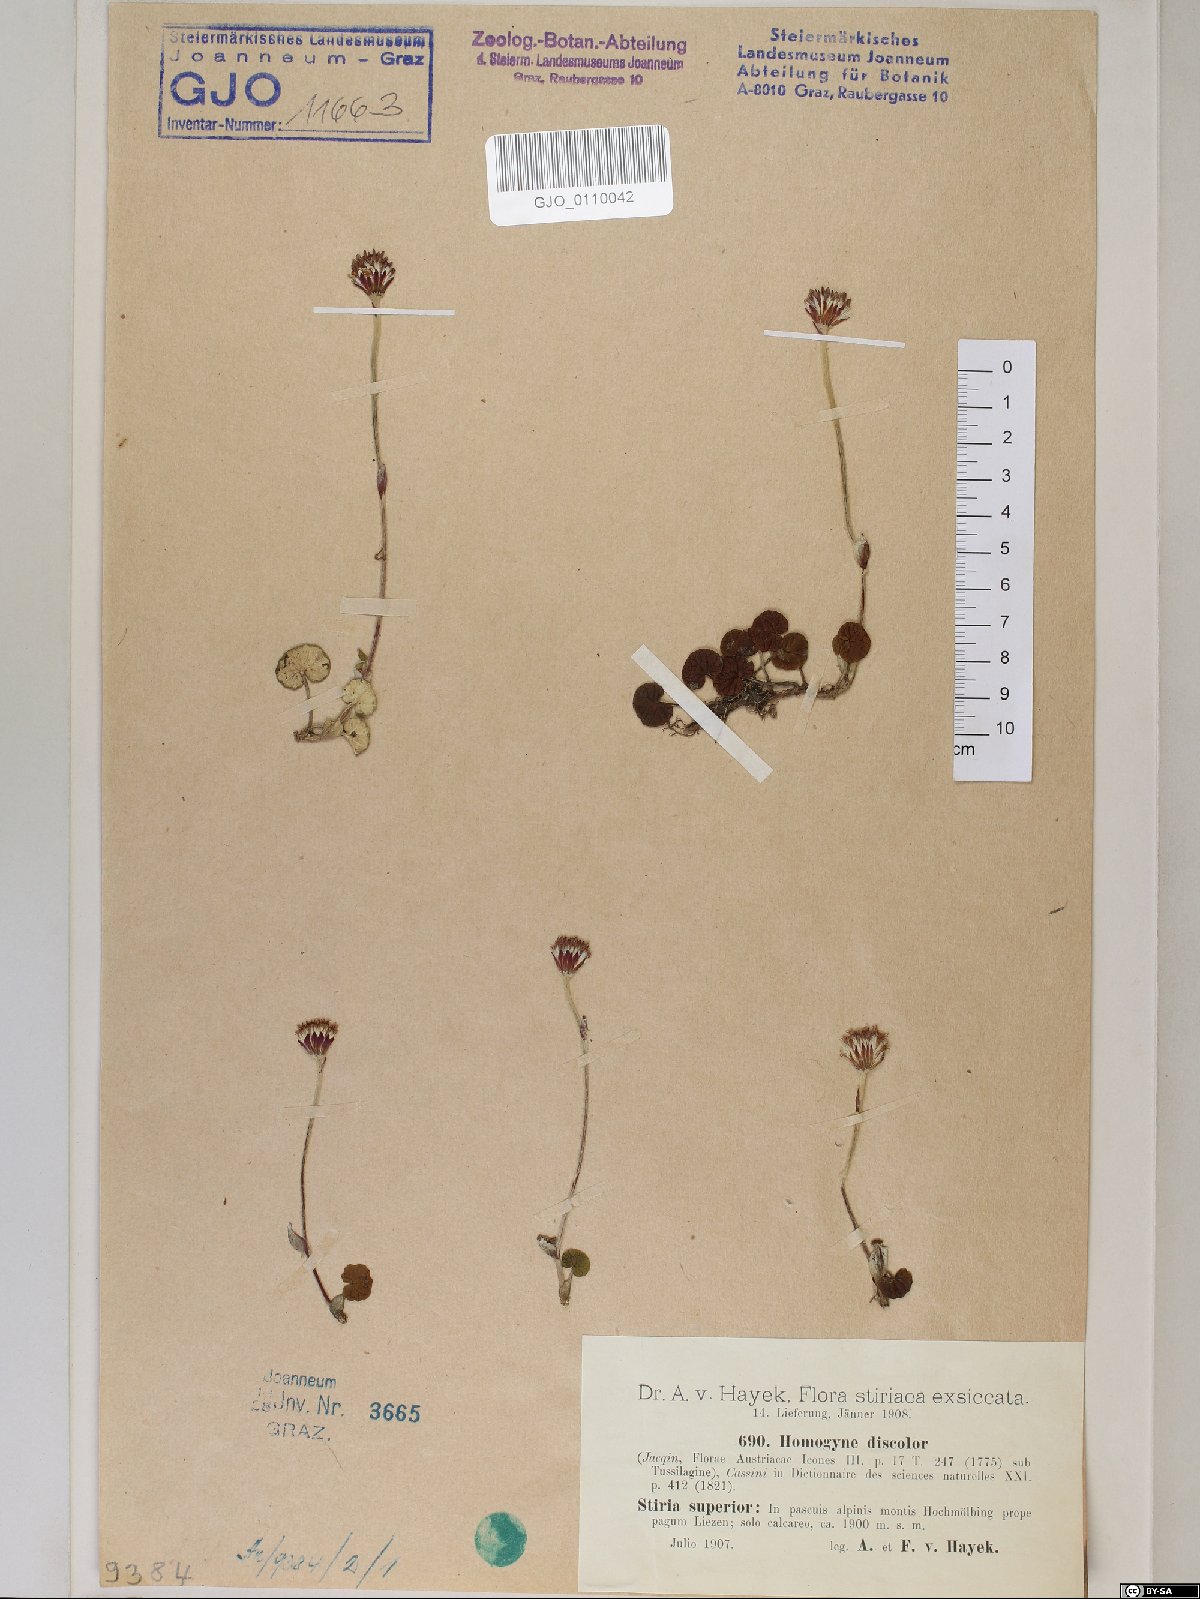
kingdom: Plantae
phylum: Tracheophyta
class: Magnoliopsida
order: Asterales
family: Asteraceae
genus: Homogyne
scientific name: Homogyne discolor
